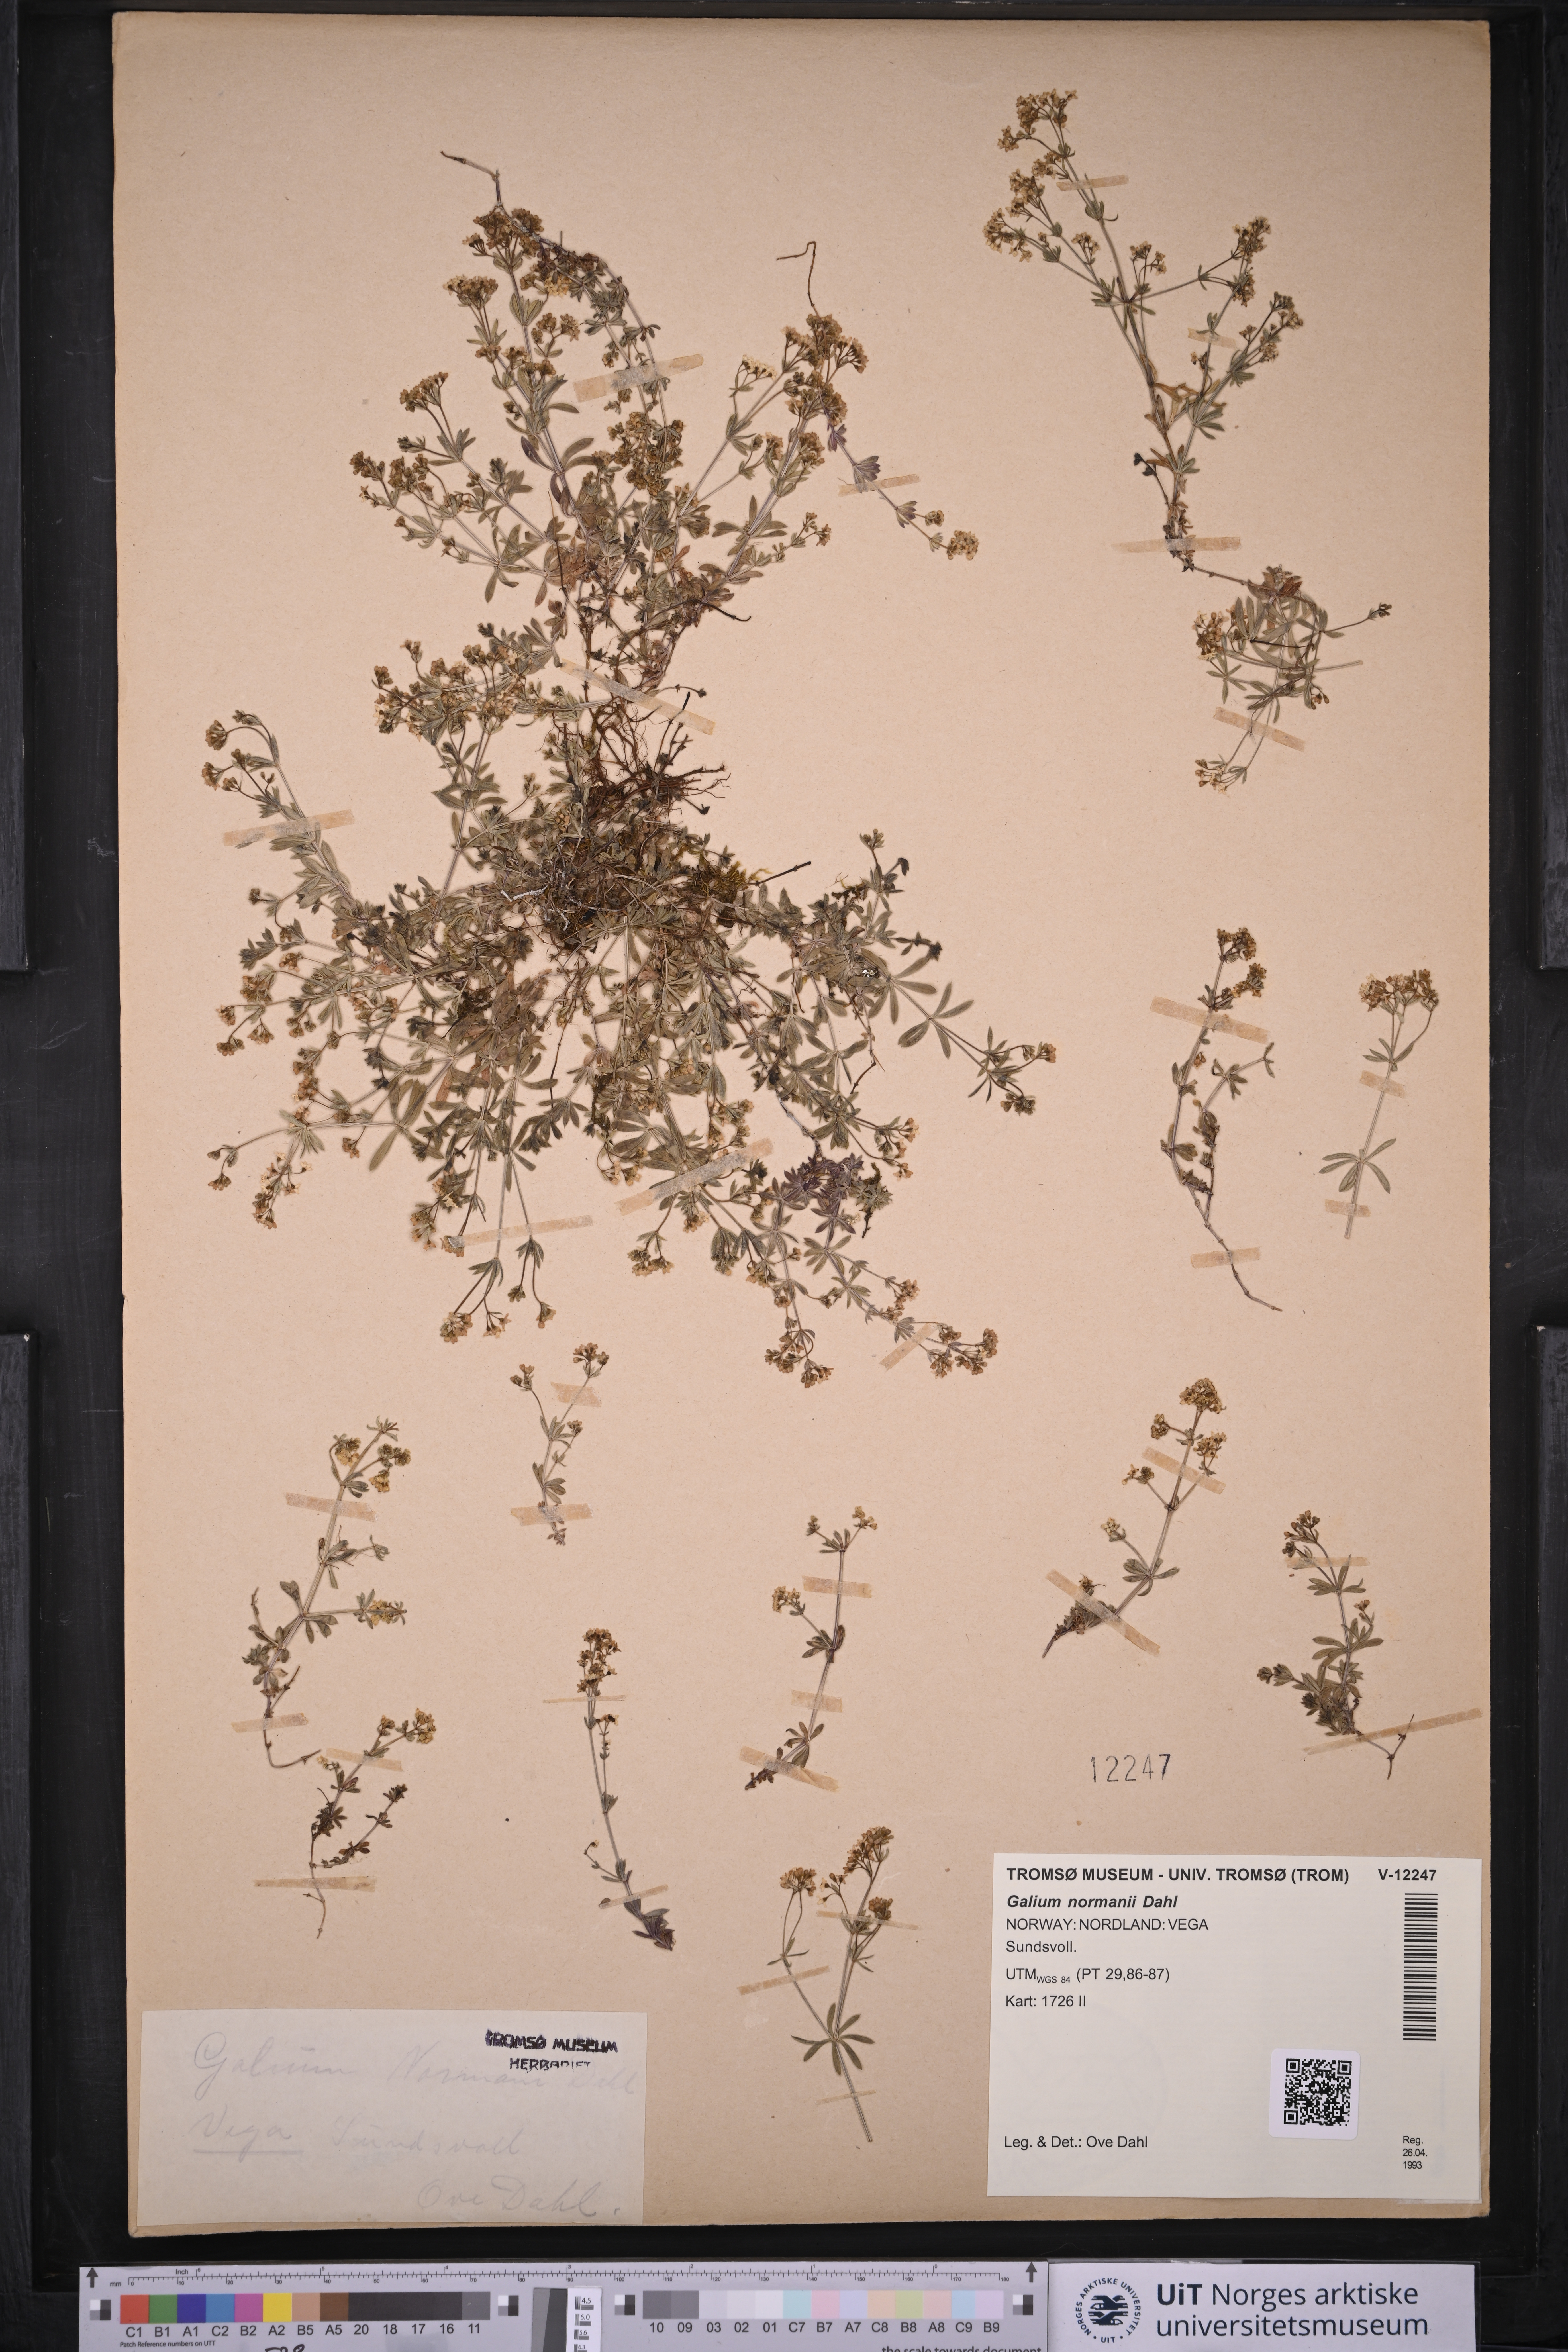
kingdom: Plantae
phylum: Tracheophyta
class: Magnoliopsida
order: Gentianales
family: Rubiaceae
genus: Galium
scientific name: Galium normanii
